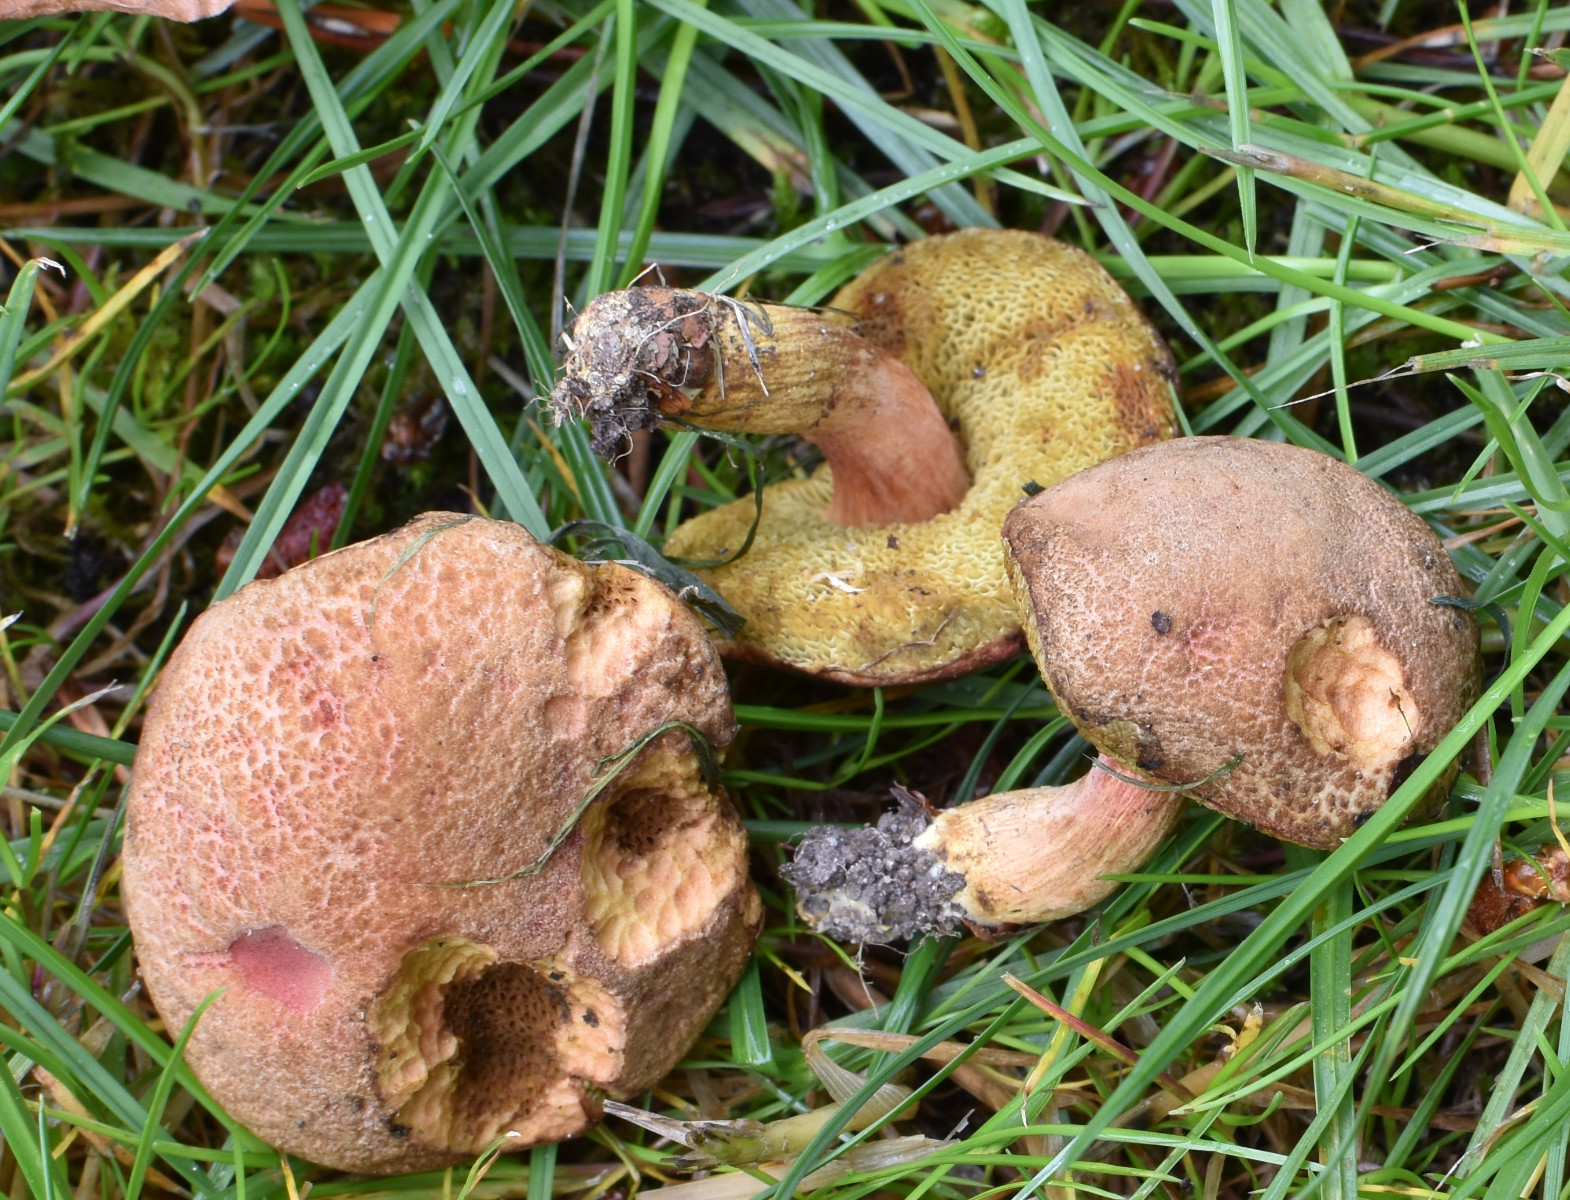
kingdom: Fungi
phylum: Basidiomycota
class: Agaricomycetes
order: Boletales
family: Boletaceae
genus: Hortiboletus
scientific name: Hortiboletus engelii
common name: fersken-rørhat
